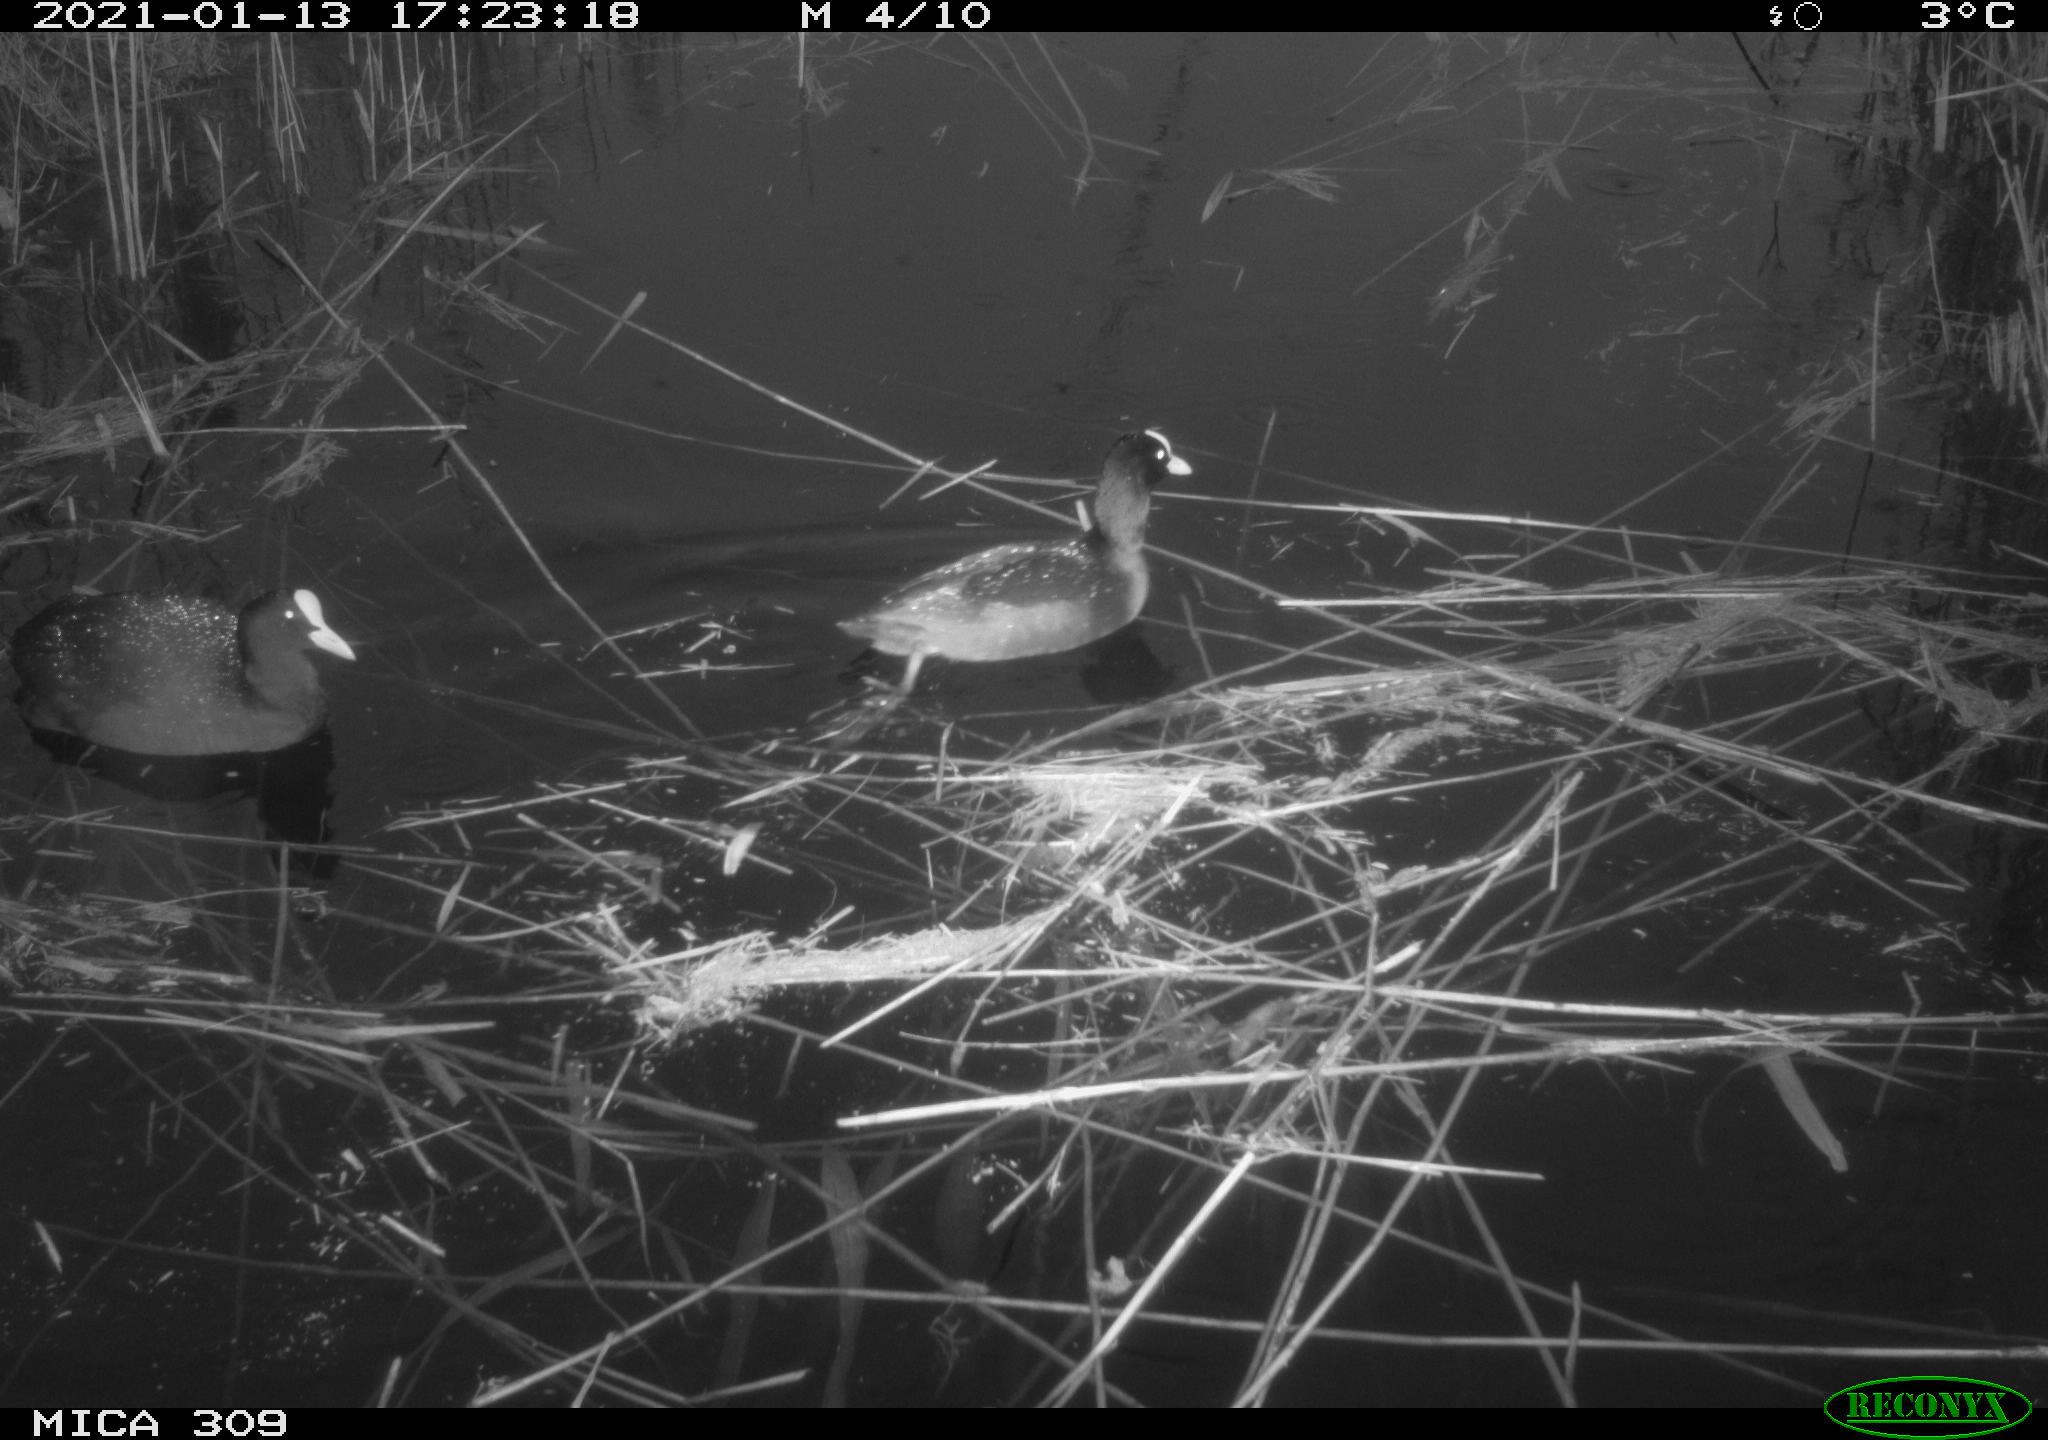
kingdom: Animalia
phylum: Chordata
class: Aves
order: Gruiformes
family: Rallidae
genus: Fulica
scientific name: Fulica atra
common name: Eurasian coot
